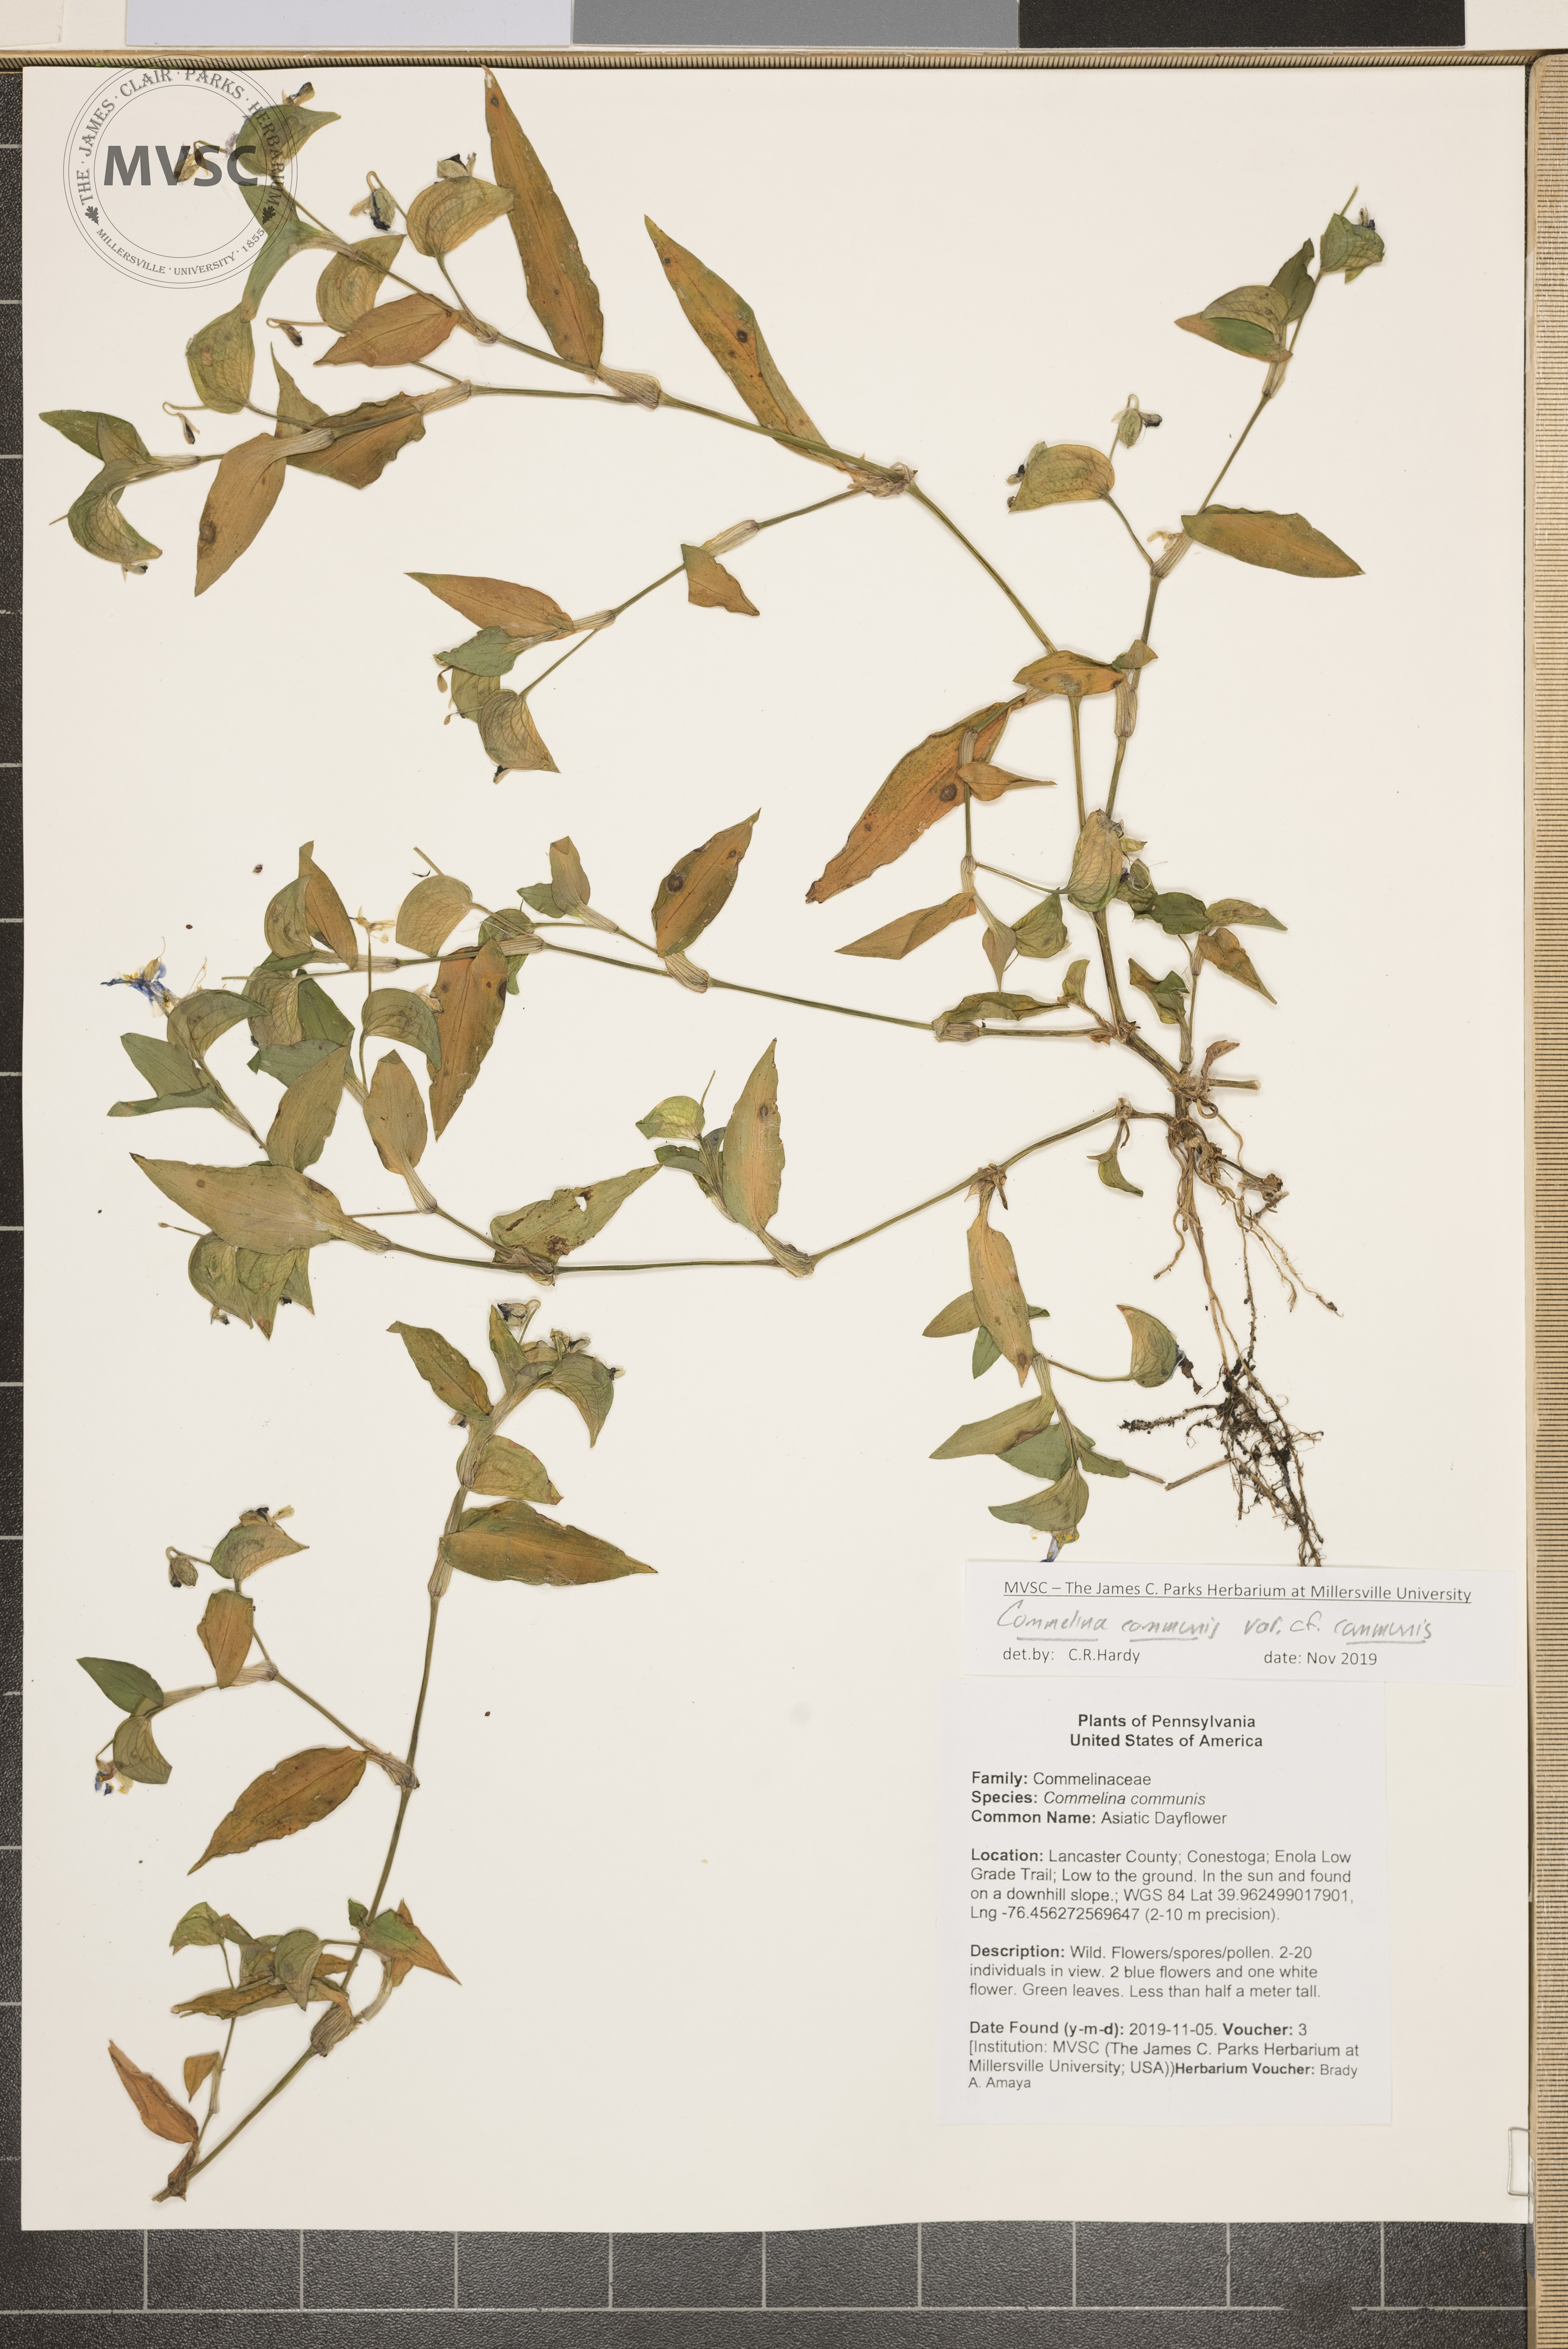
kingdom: Plantae
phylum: Tracheophyta
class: Liliopsida
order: Commelinales
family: Commelinaceae
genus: Commelina
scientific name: Commelina communis
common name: Asiatic Dayflower
